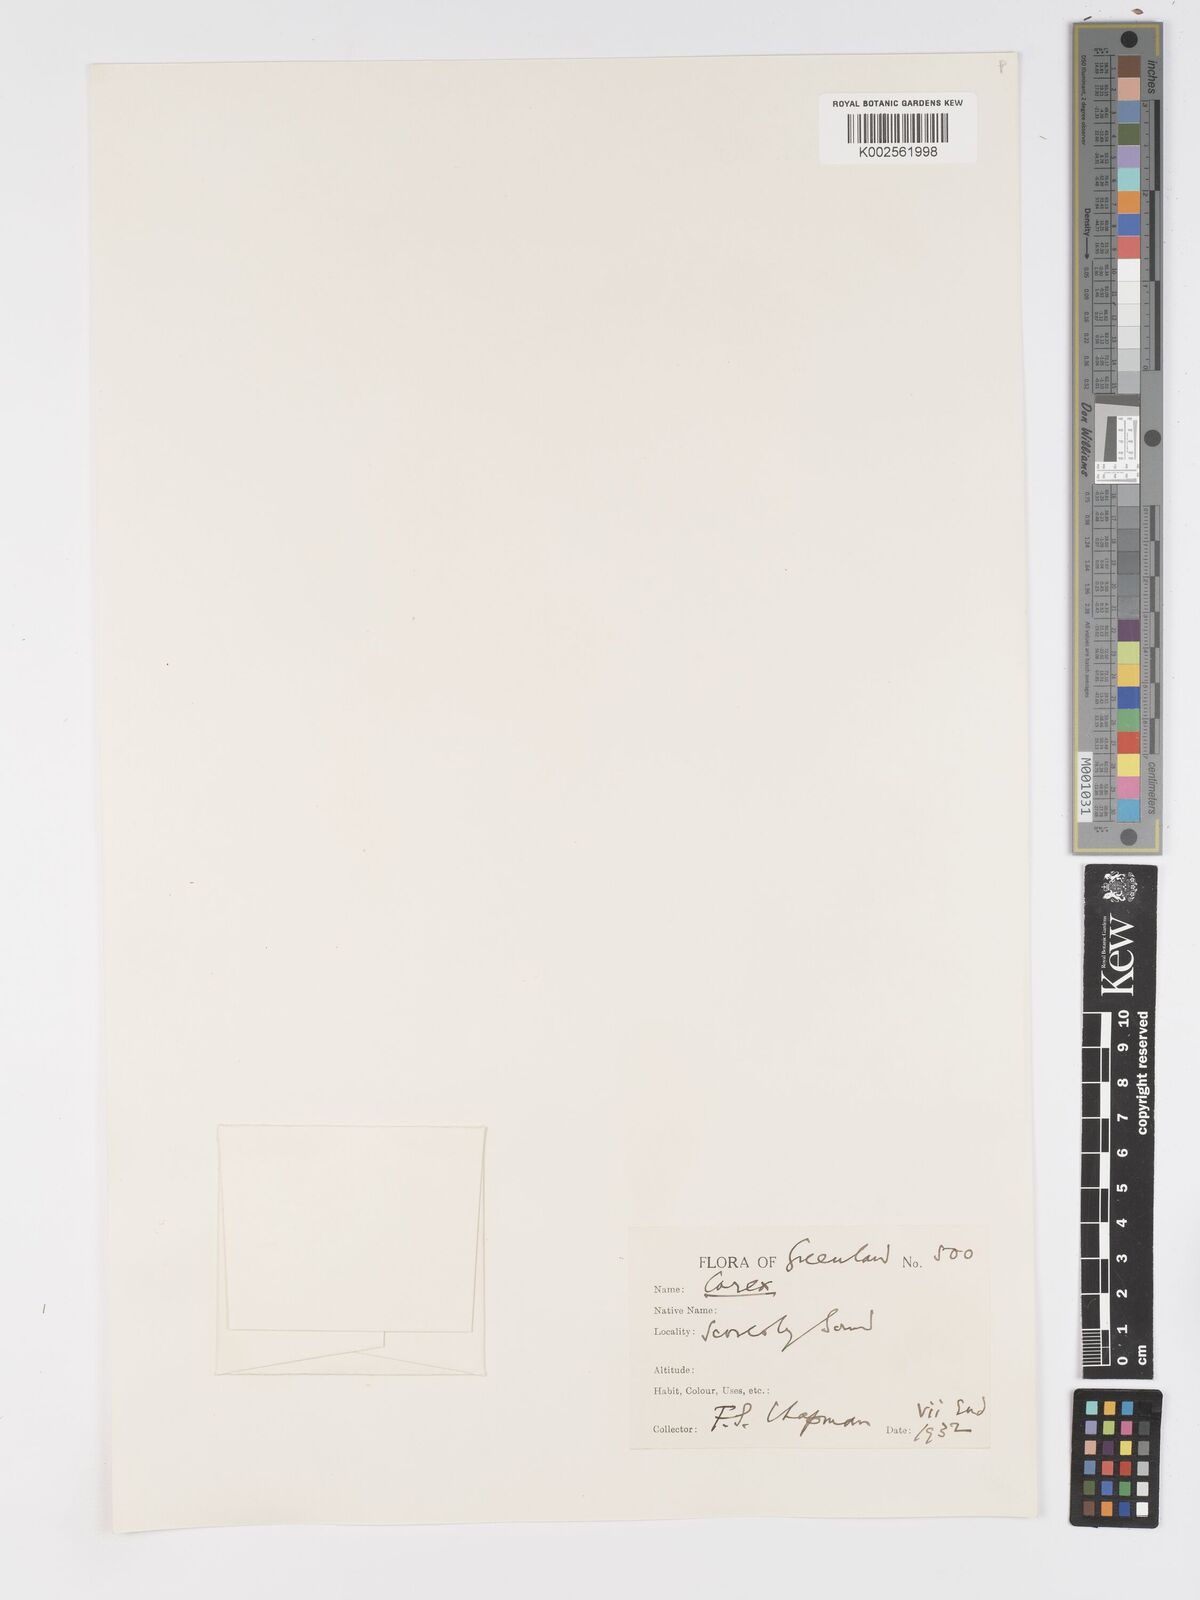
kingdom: Plantae
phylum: Tracheophyta
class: Liliopsida
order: Poales
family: Cyperaceae
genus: Carex
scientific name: Carex bigelowii
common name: Stiff sedge
